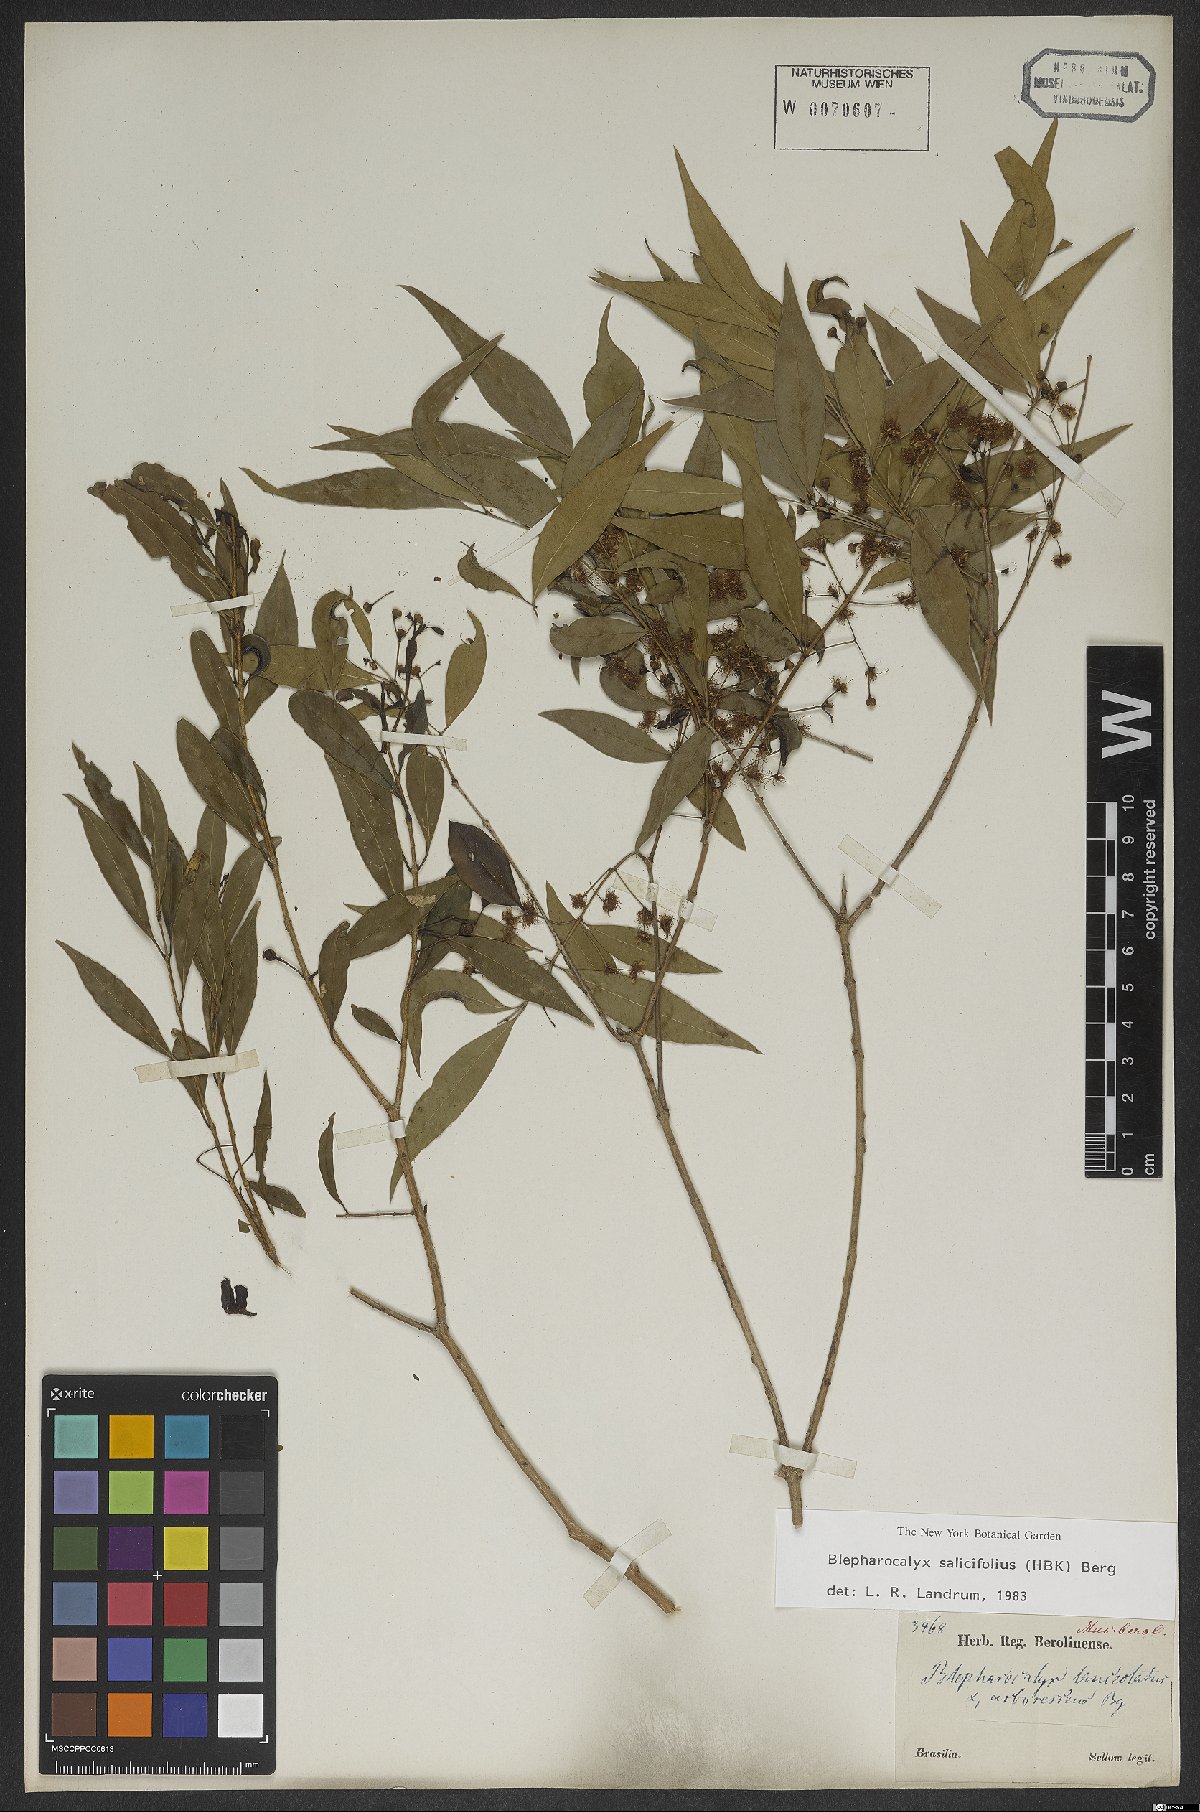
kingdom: Plantae
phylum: Tracheophyta
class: Magnoliopsida
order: Myrtales
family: Myrtaceae
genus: Blepharocalyx
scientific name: Blepharocalyx salicifolius
